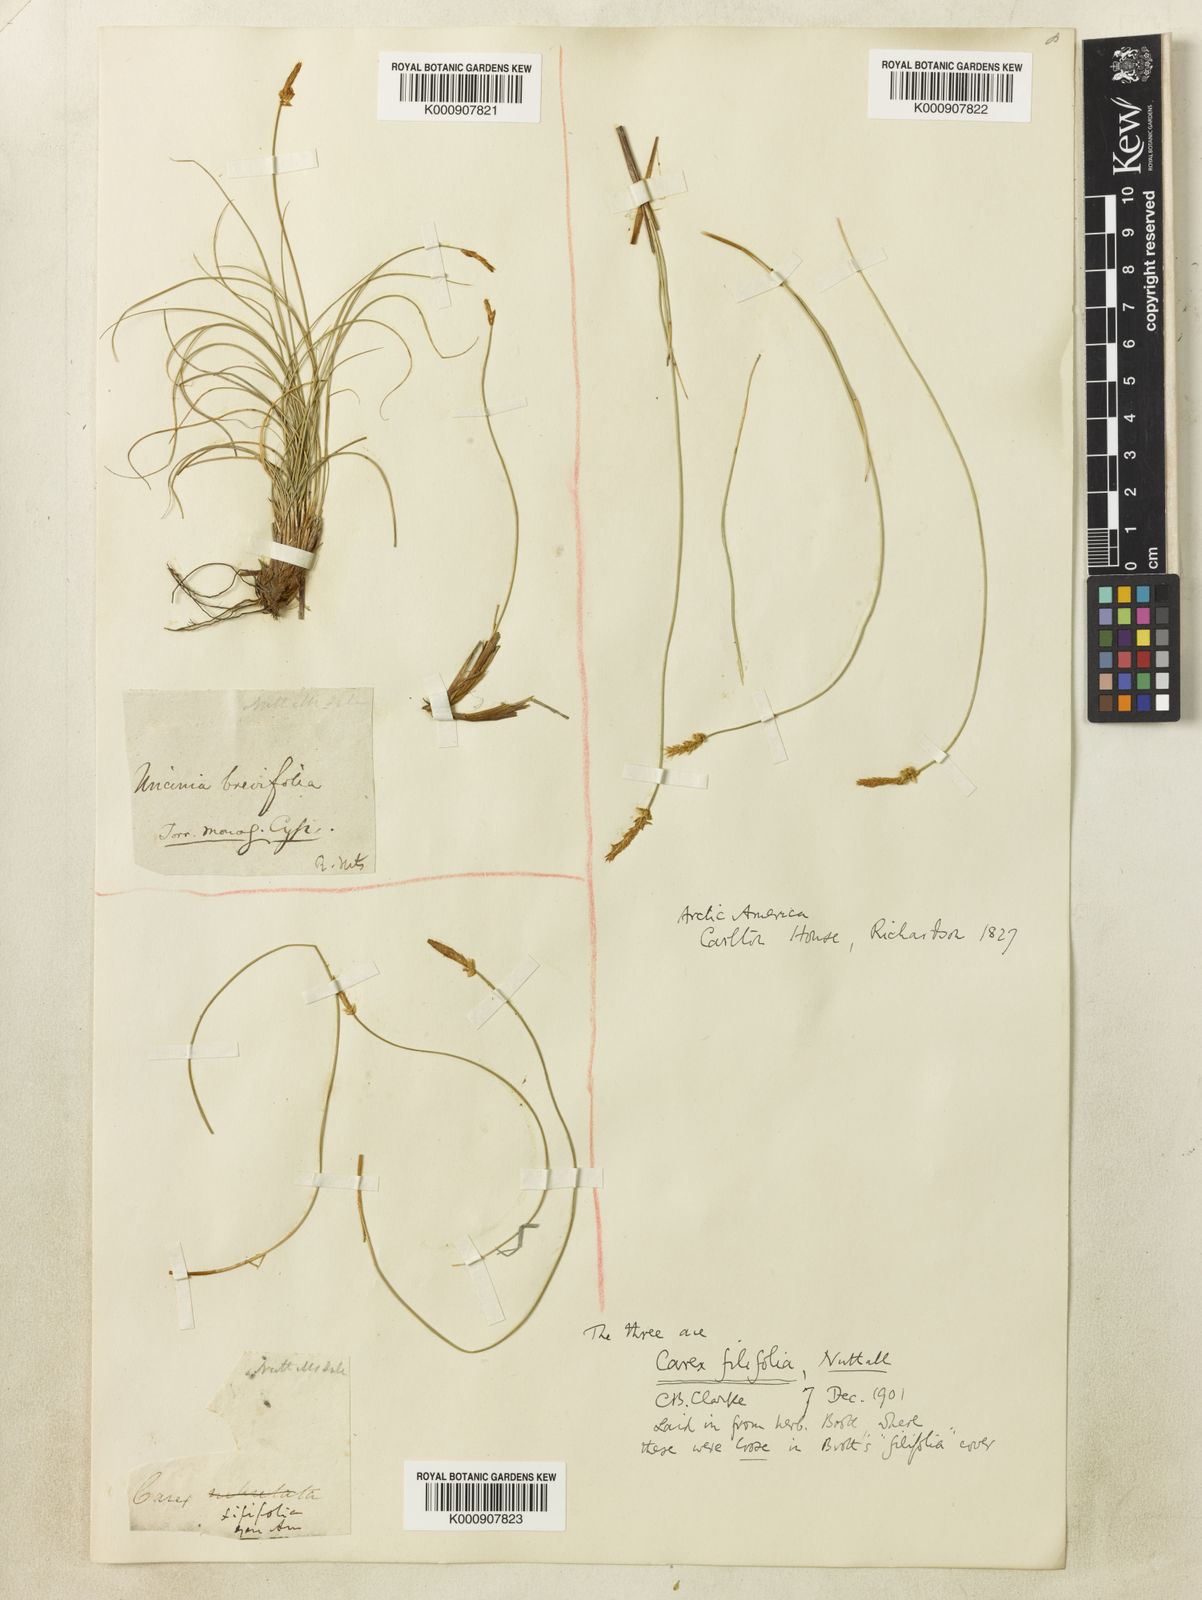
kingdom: Plantae
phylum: Tracheophyta
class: Liliopsida
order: Poales
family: Cyperaceae
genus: Carex
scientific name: Carex filifolia
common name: Threadleaf sedge
